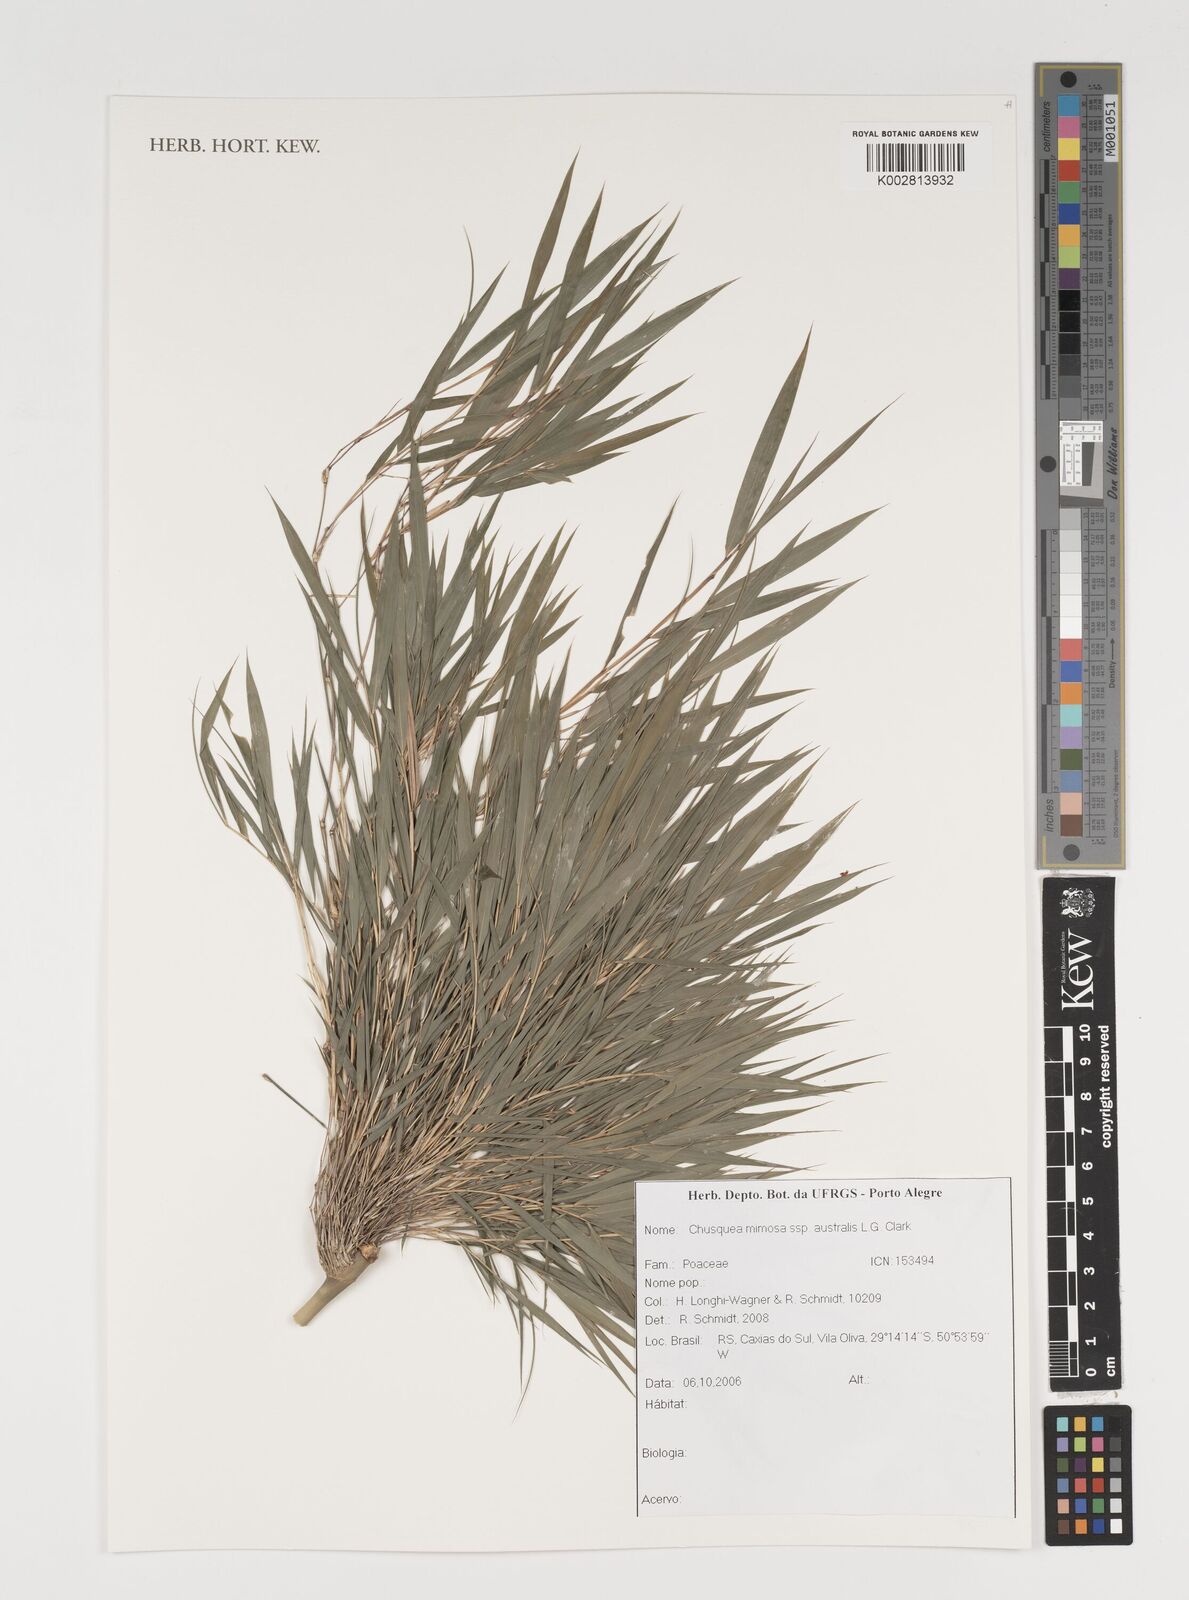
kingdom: Plantae
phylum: Tracheophyta
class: Liliopsida
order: Poales
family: Poaceae
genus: Chusquea
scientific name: Chusquea mimosa
